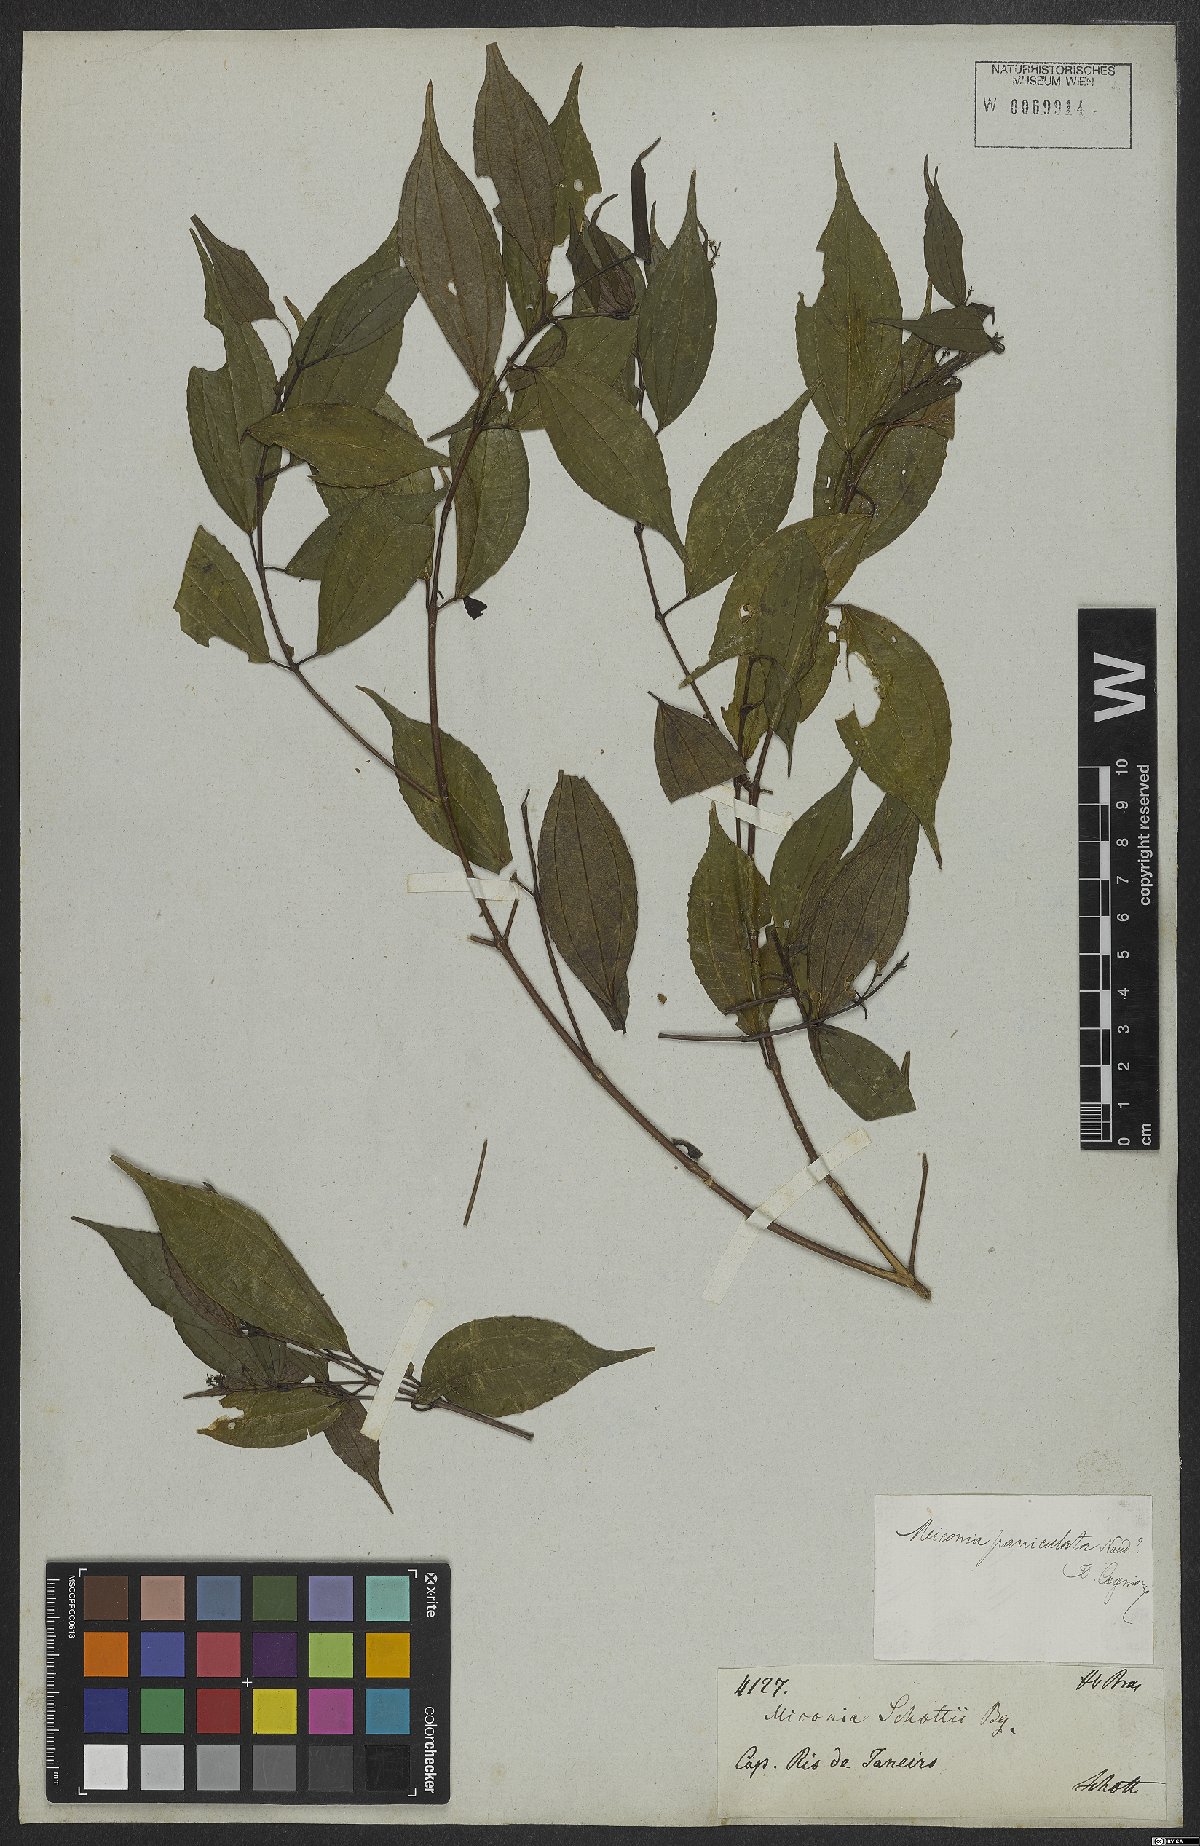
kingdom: Plantae
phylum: Tracheophyta
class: Magnoliopsida
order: Myrtales
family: Melastomataceae
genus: Miconia
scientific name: Miconia paniculata
